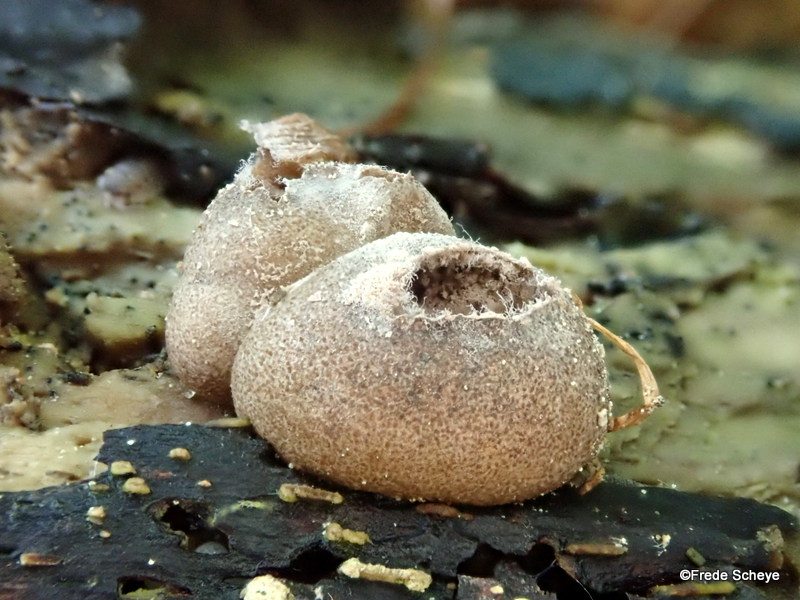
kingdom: Protozoa
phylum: Mycetozoa
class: Myxomycetes
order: Cribrariales
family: Tubiferaceae
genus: Lycogala
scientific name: Lycogala epidendrum
